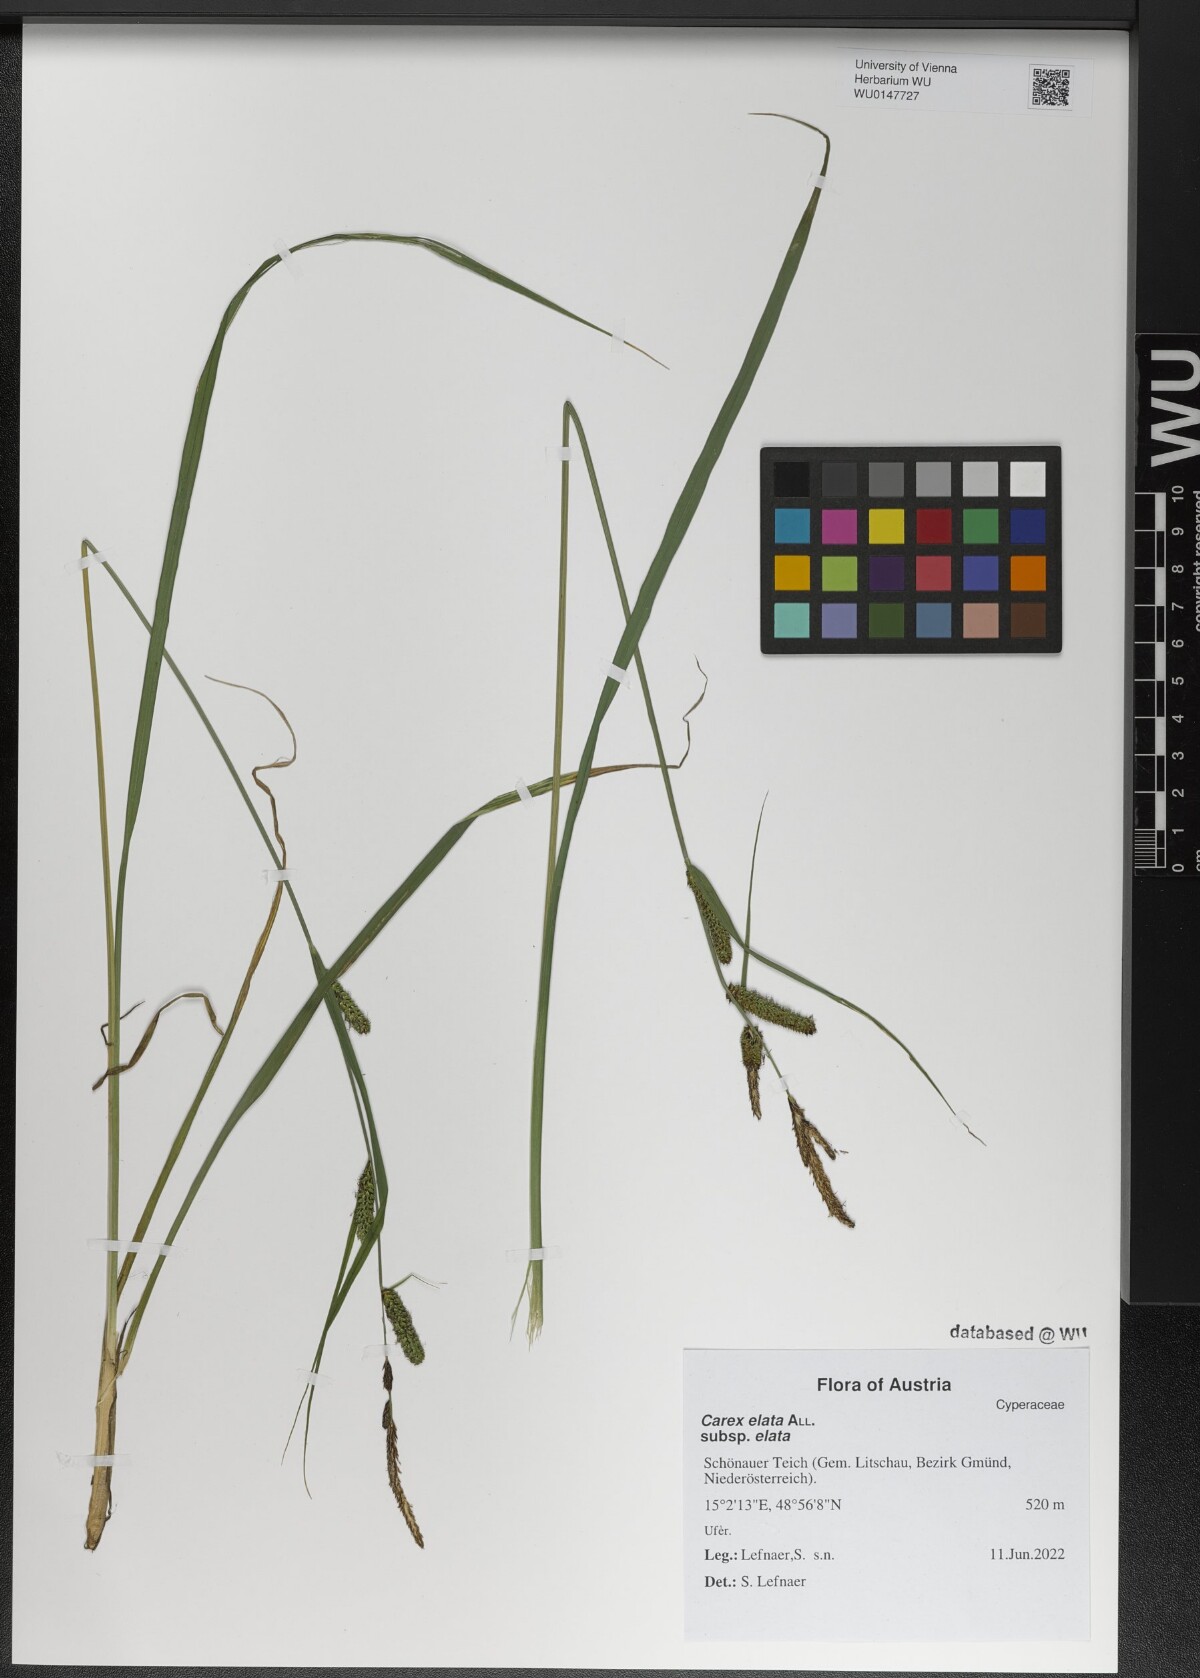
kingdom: Plantae
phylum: Tracheophyta
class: Liliopsida
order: Poales
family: Cyperaceae
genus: Carex
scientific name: Carex elata
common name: Tufted sedge
